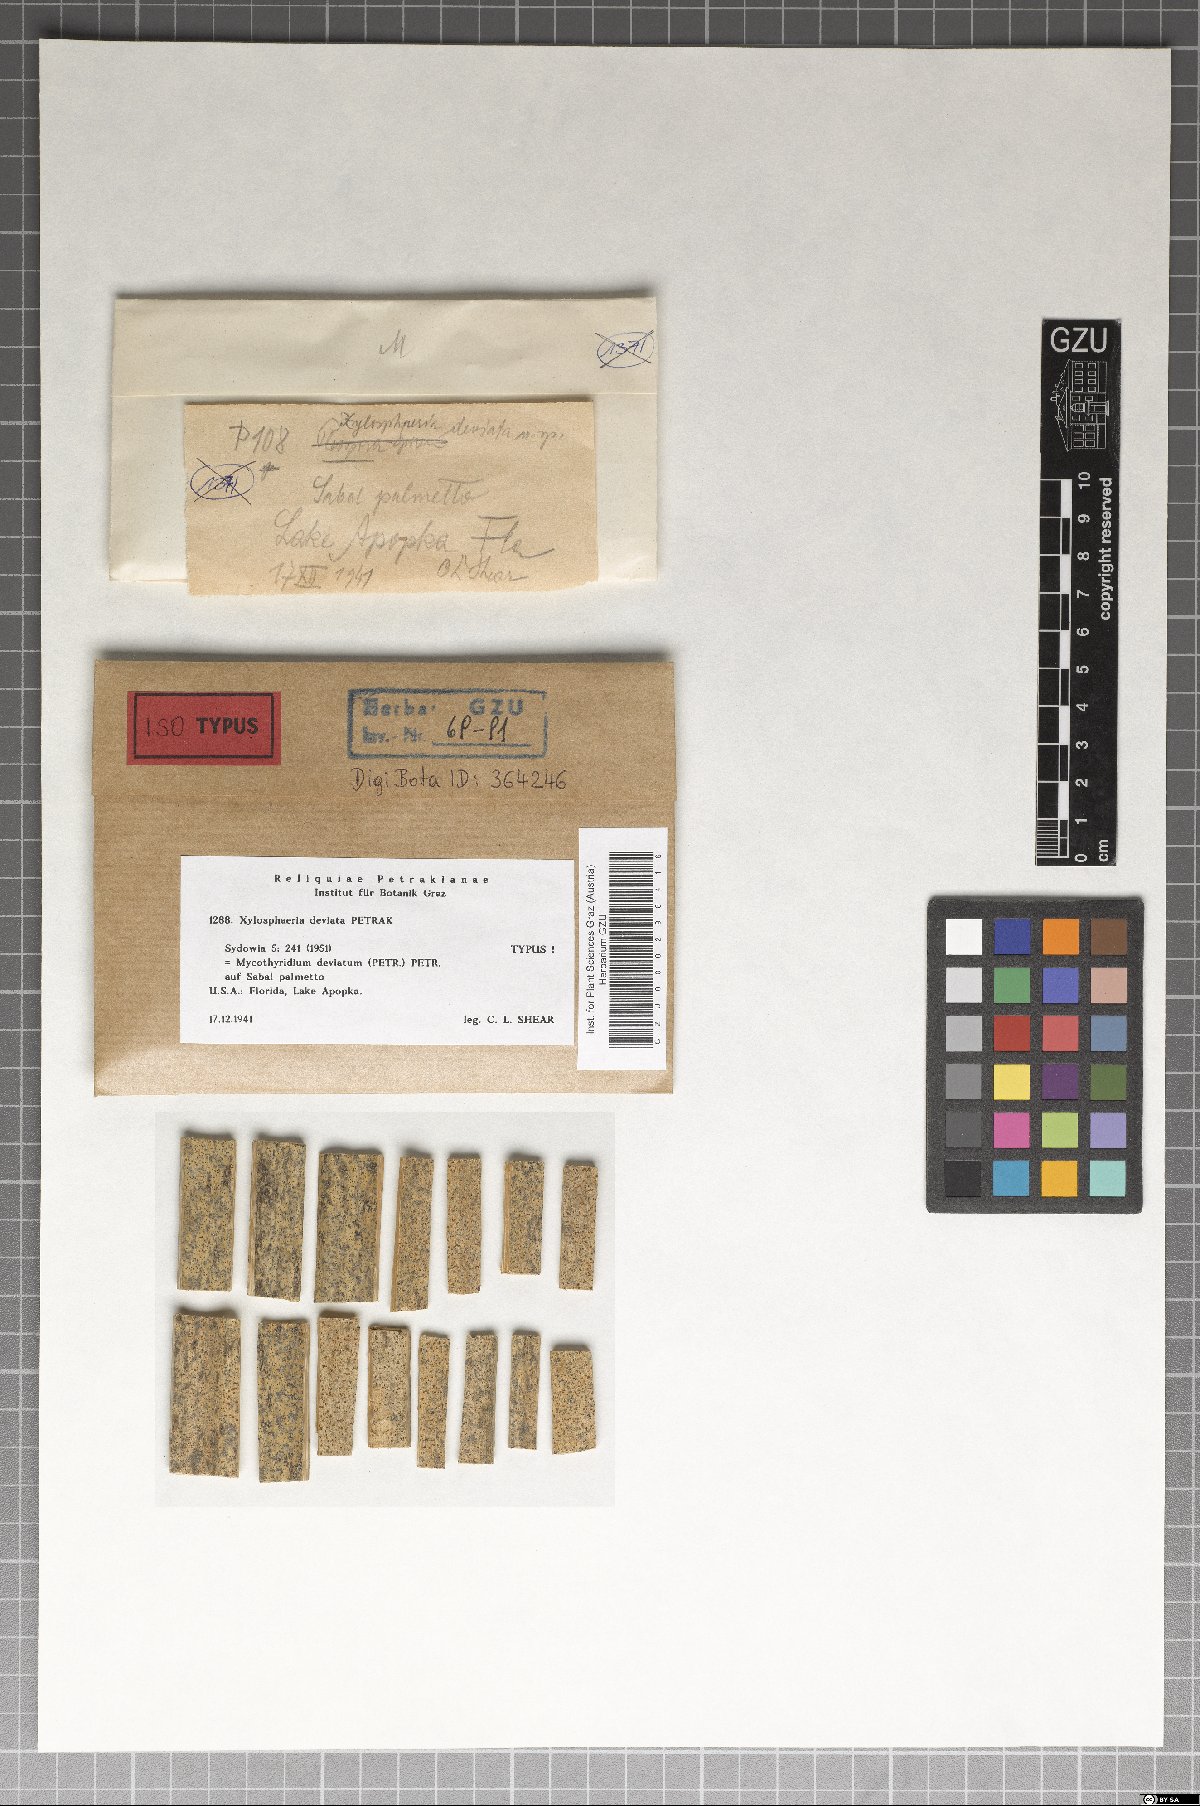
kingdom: Fungi
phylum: Ascomycota
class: Dothideomycetes
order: Dothideales
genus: Mycothyridium
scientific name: Mycothyridium deviatum
